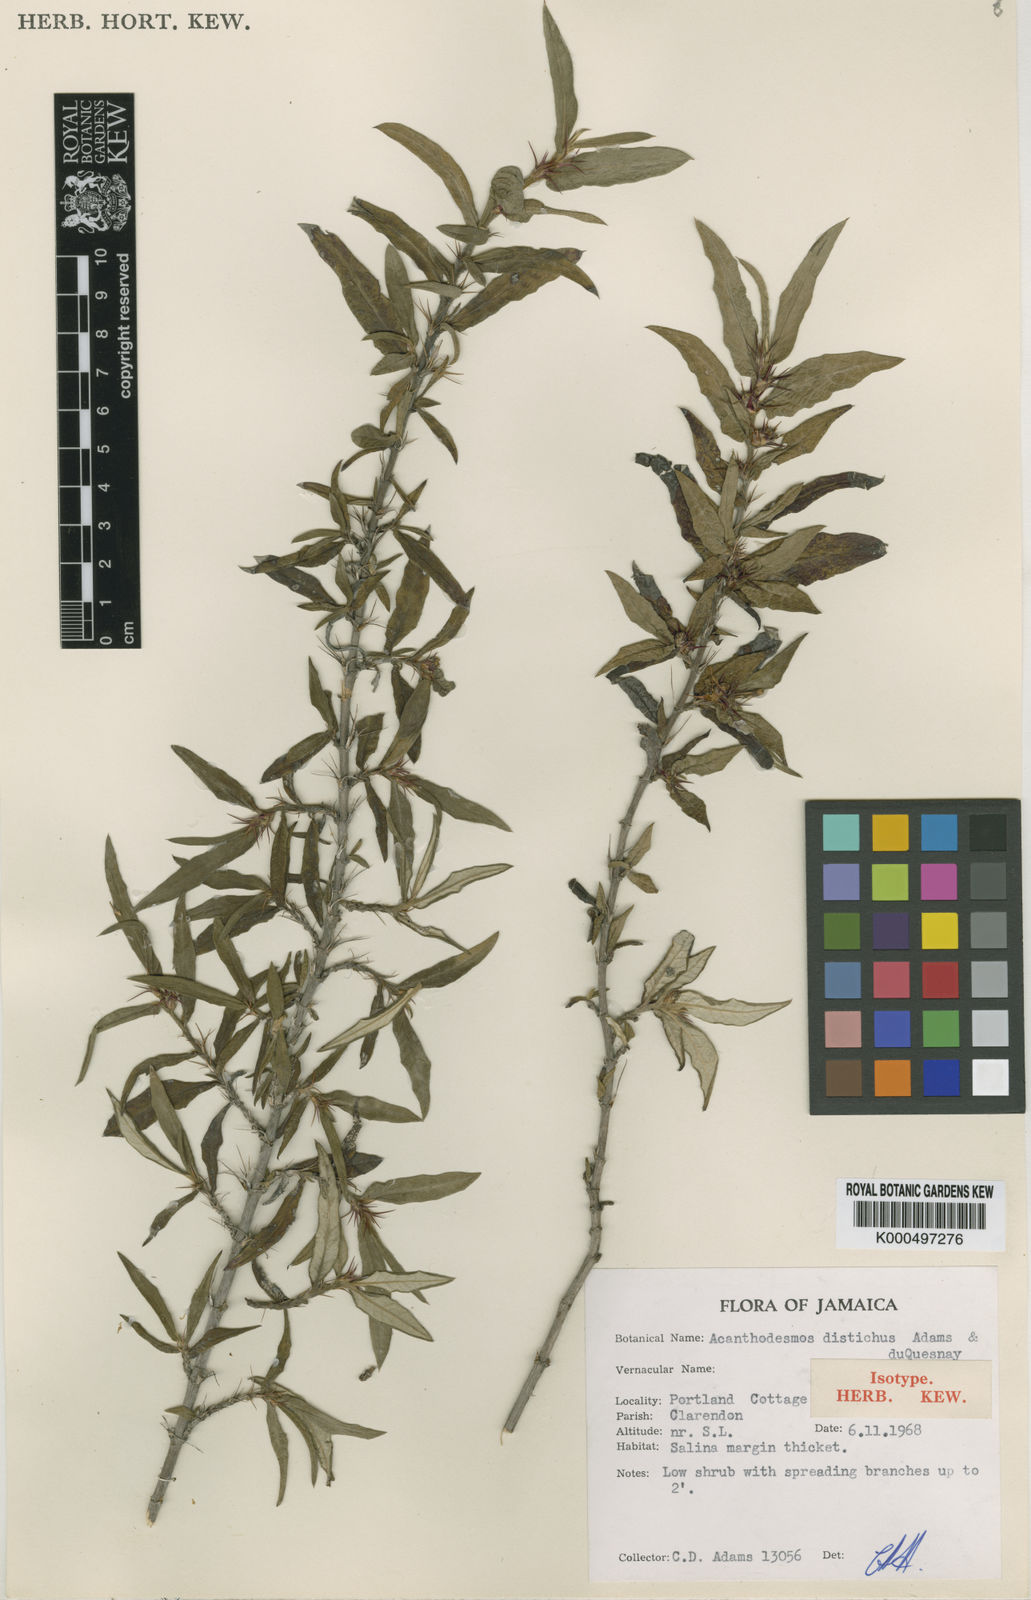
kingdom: Plantae
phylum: Tracheophyta
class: Magnoliopsida
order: Asterales
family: Asteraceae
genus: Acanthodesmos
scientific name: Acanthodesmos distichus
